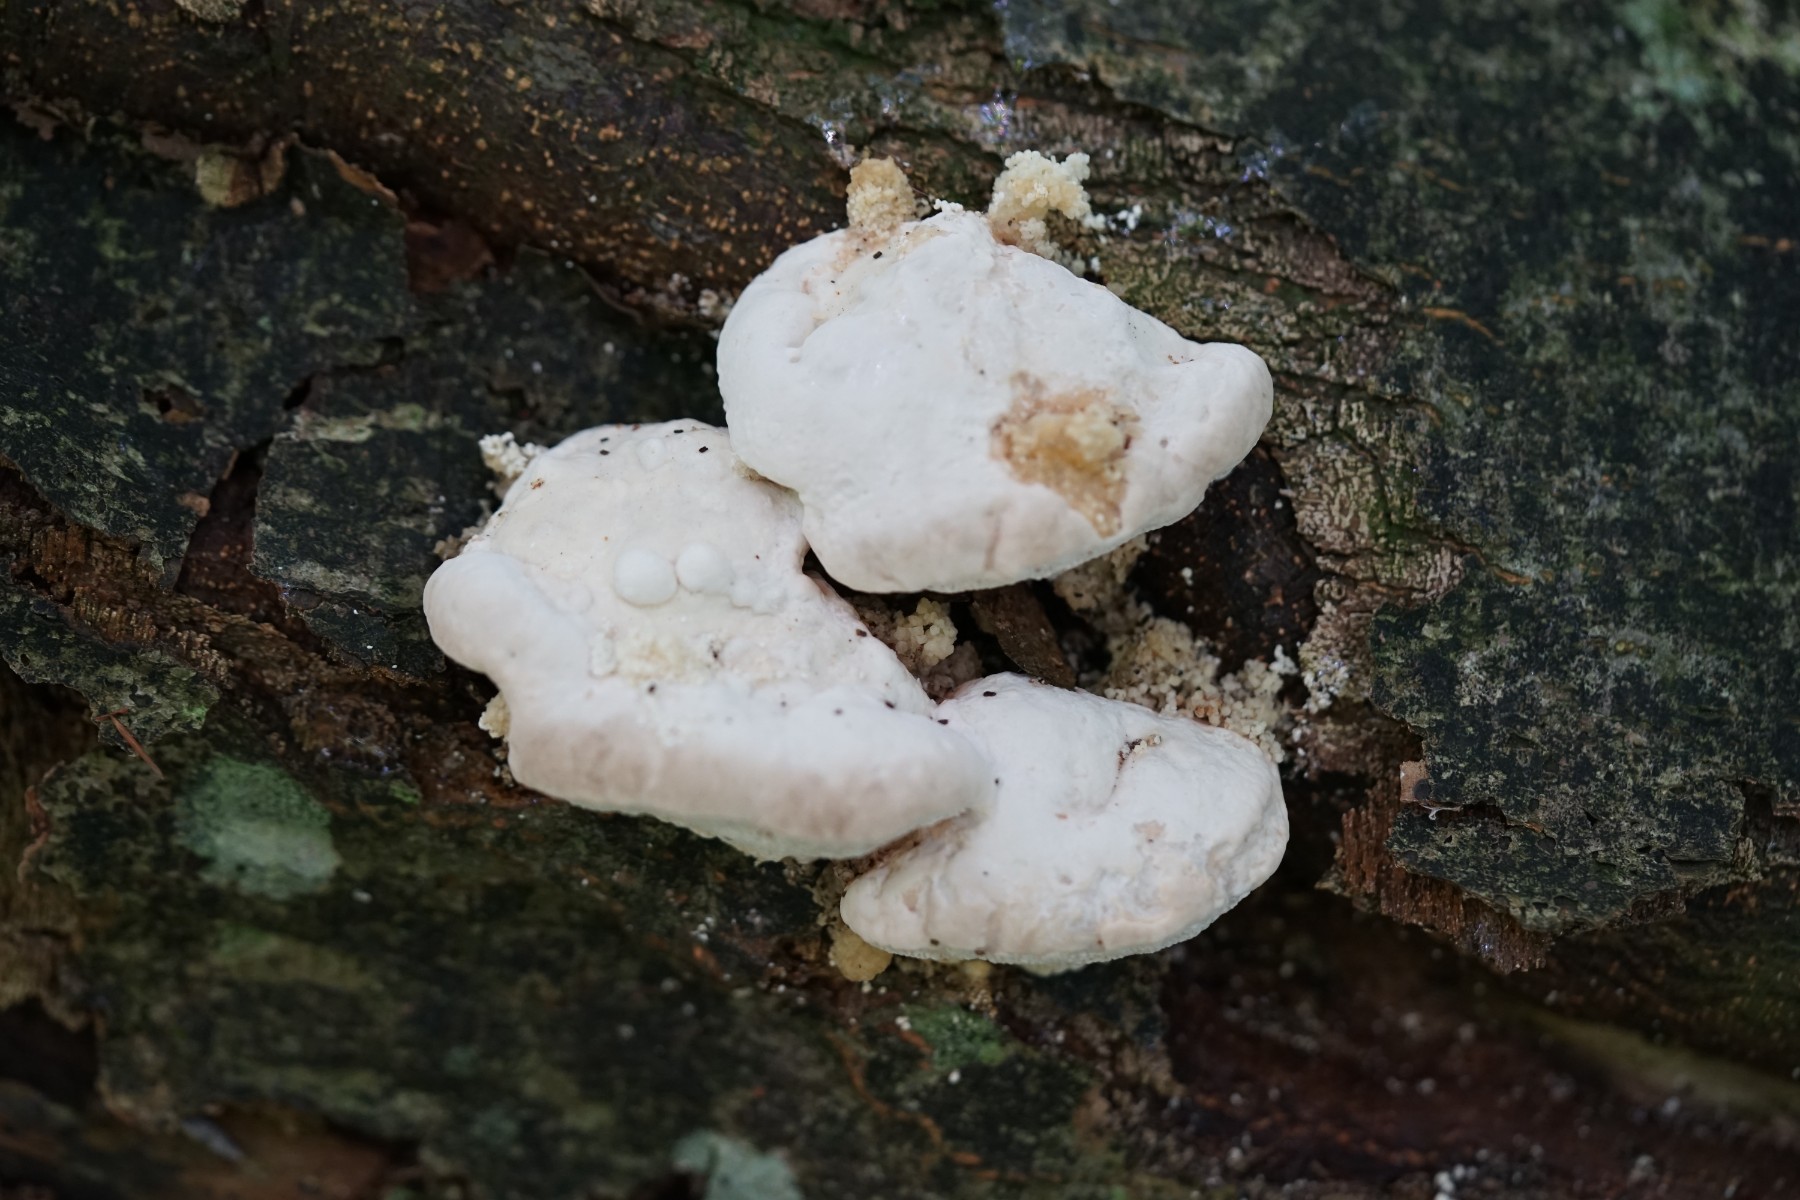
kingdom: Fungi
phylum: Basidiomycota
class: Agaricomycetes
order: Polyporales
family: Polyporaceae
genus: Trametes
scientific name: Trametes gibbosa
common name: puklet læderporesvamp
